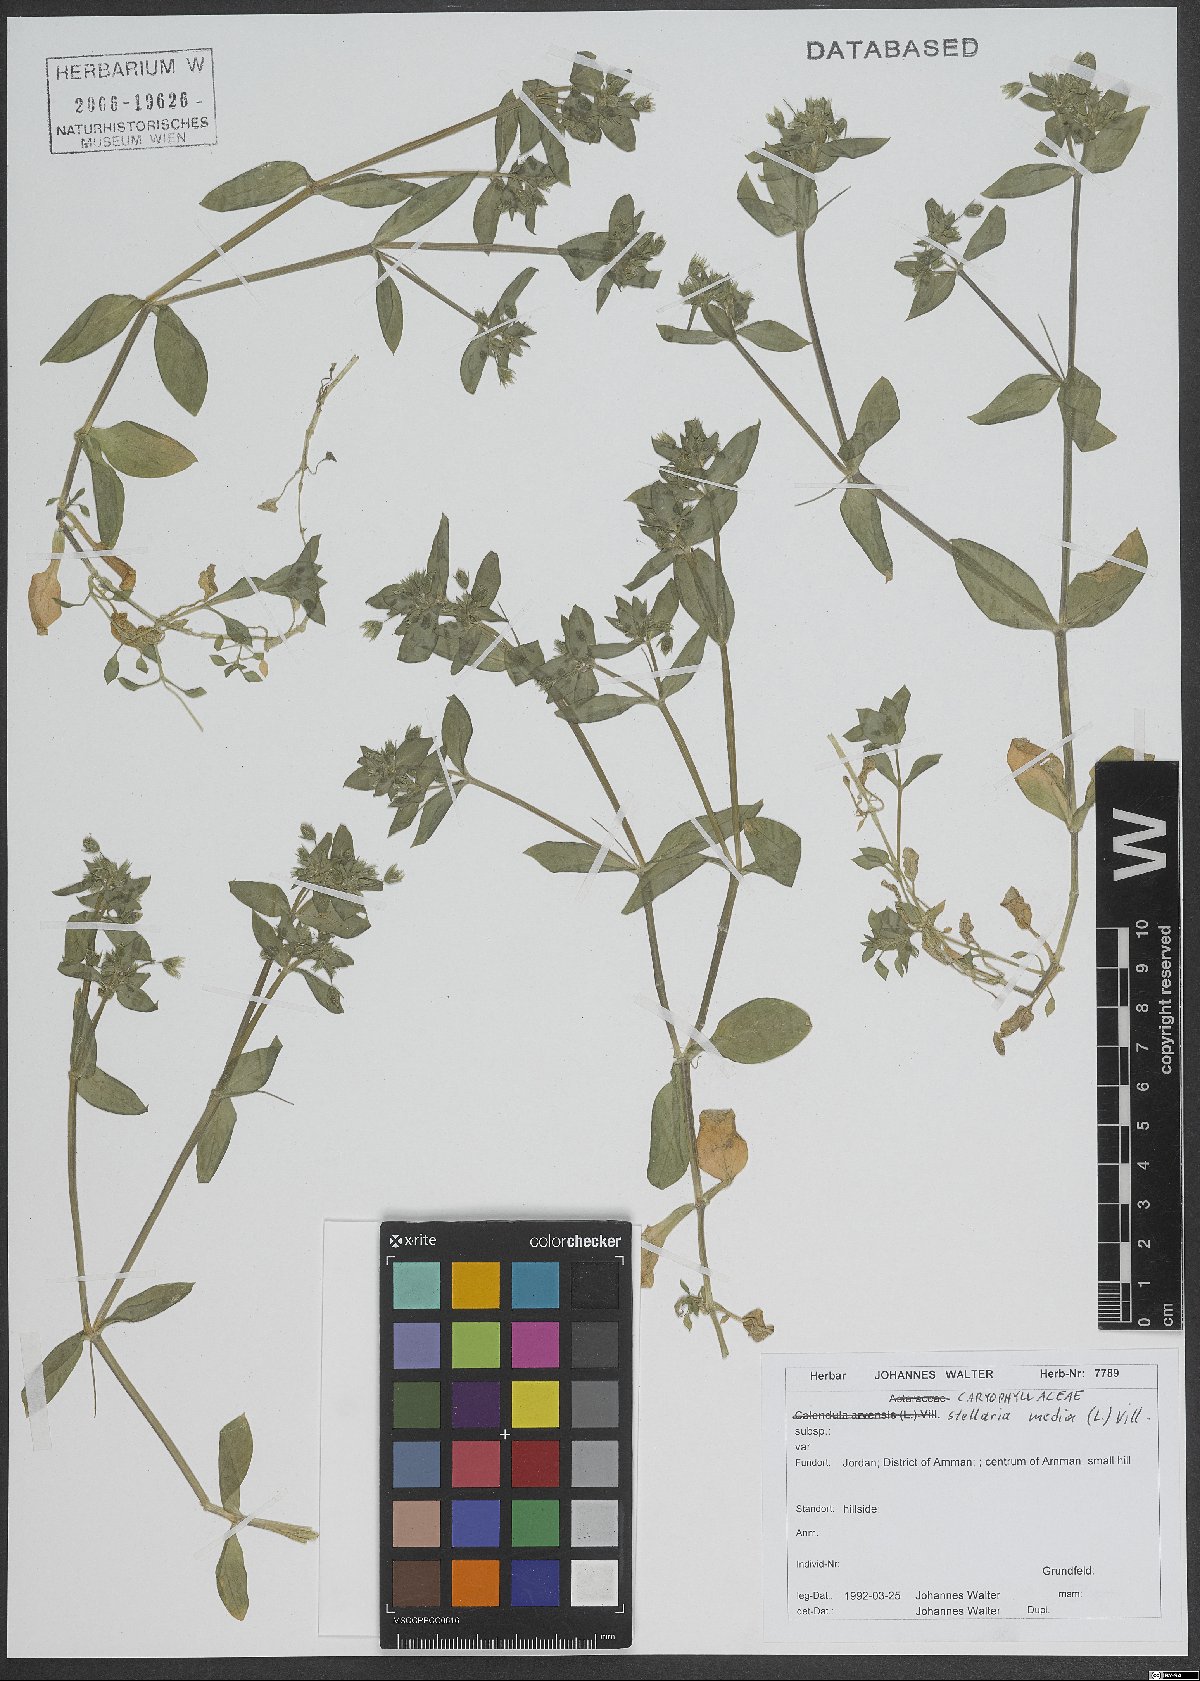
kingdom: Plantae
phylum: Tracheophyta
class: Magnoliopsida
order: Caryophyllales
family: Caryophyllaceae
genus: Stellaria
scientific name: Stellaria apetala
